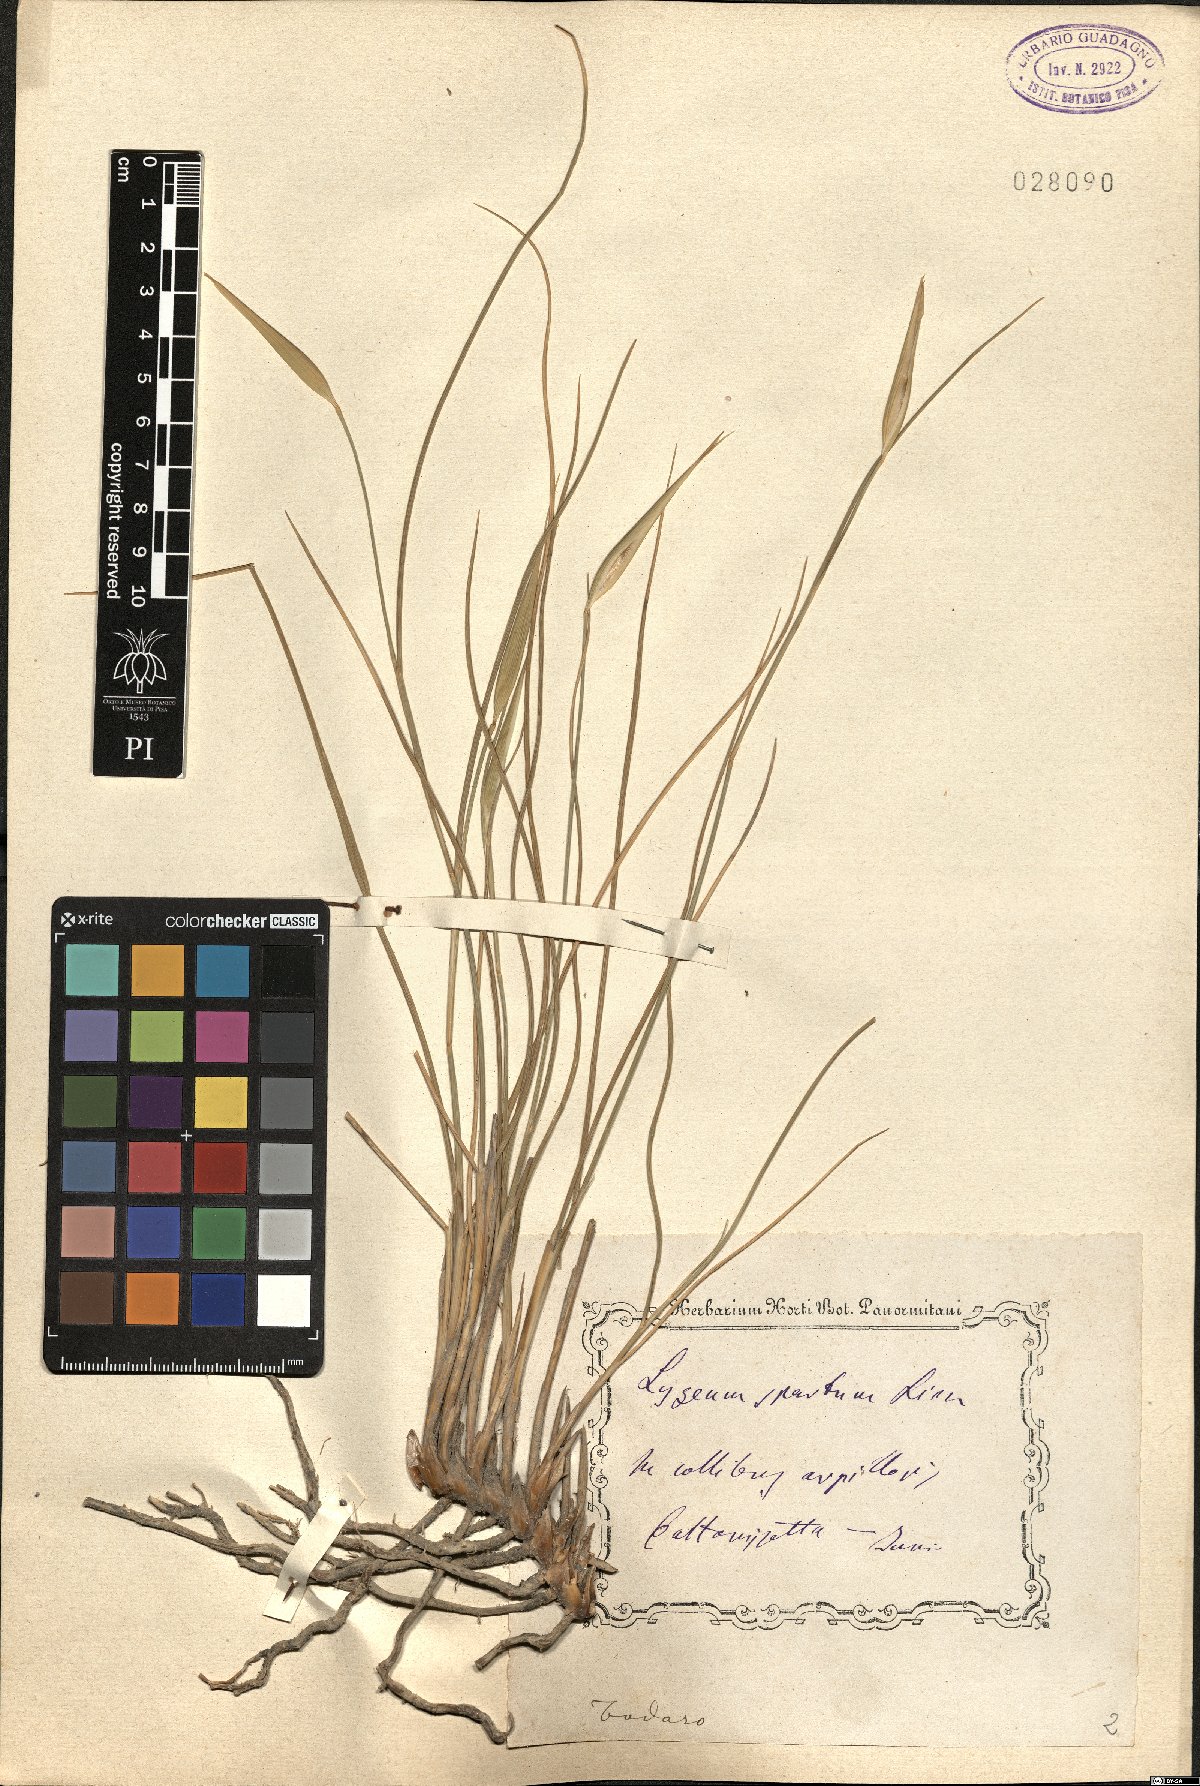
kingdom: Plantae
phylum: Tracheophyta
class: Liliopsida
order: Poales
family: Poaceae
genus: Lygeum
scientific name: Lygeum spartum
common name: Albardine
